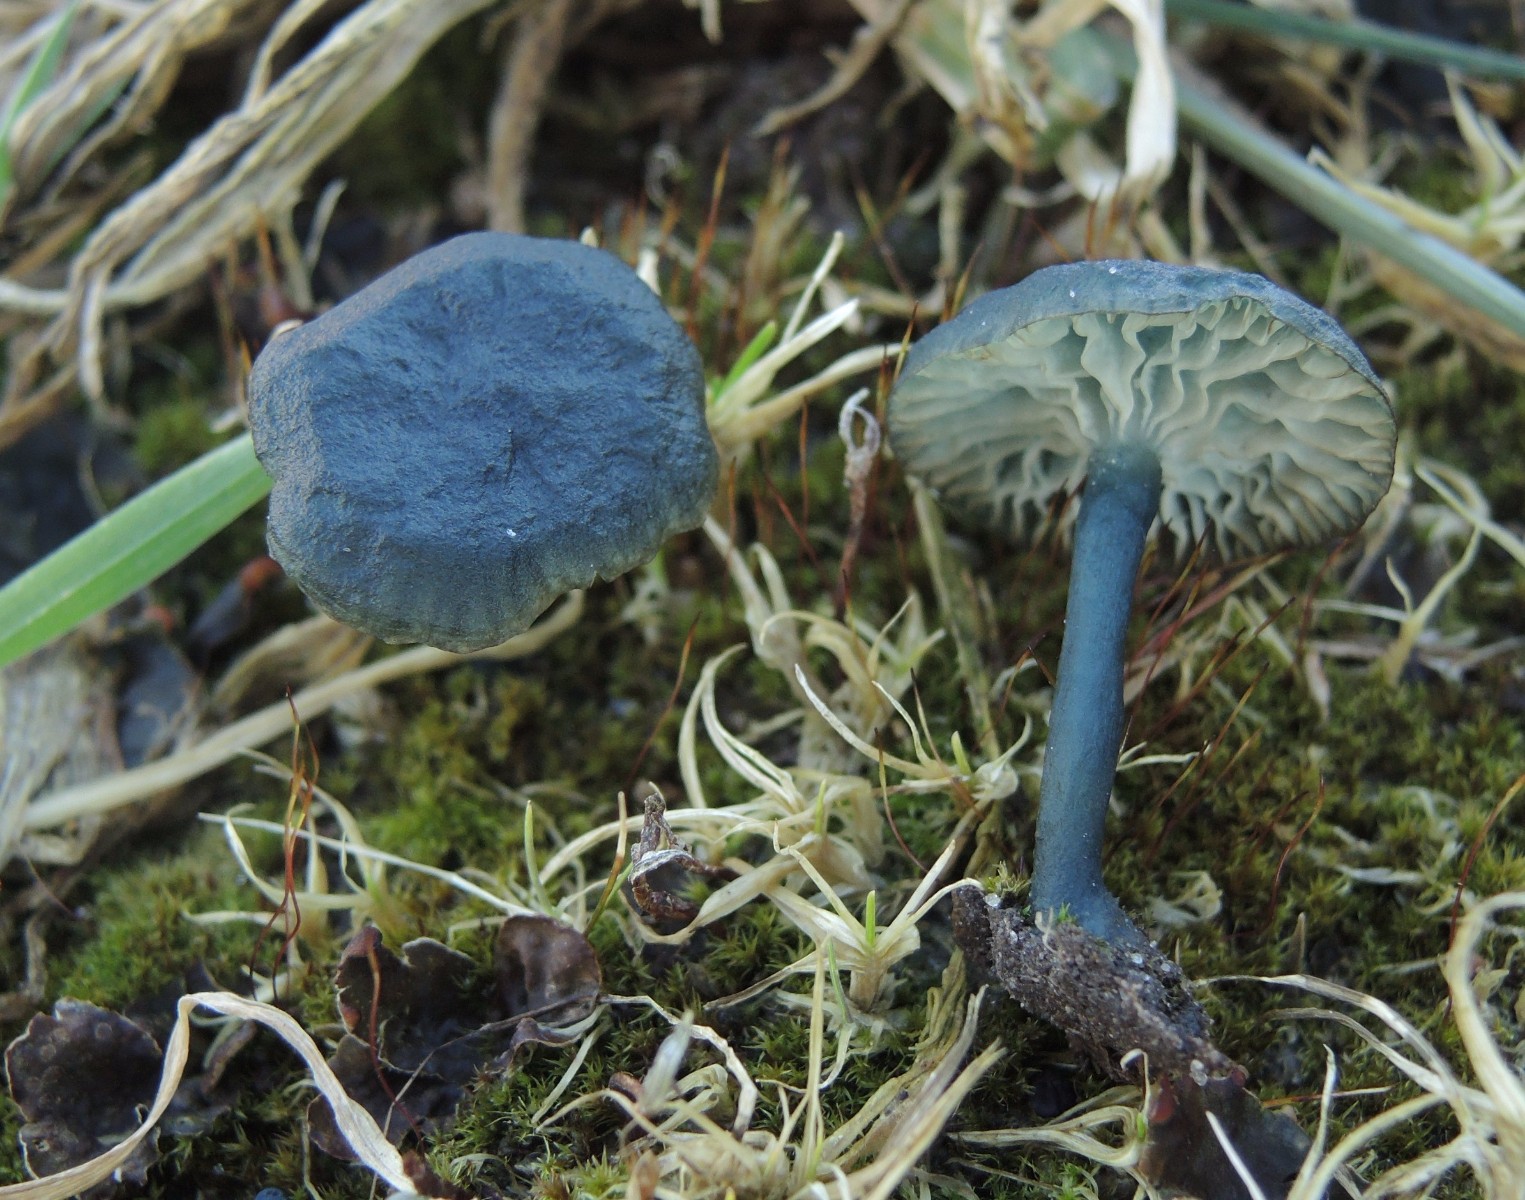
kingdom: Fungi
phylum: Basidiomycota
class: Agaricomycetes
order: Agaricales
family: Hygrophoraceae
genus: Arrhenia
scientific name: Arrhenia chlorocyanea
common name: blågrøn fontænehat
